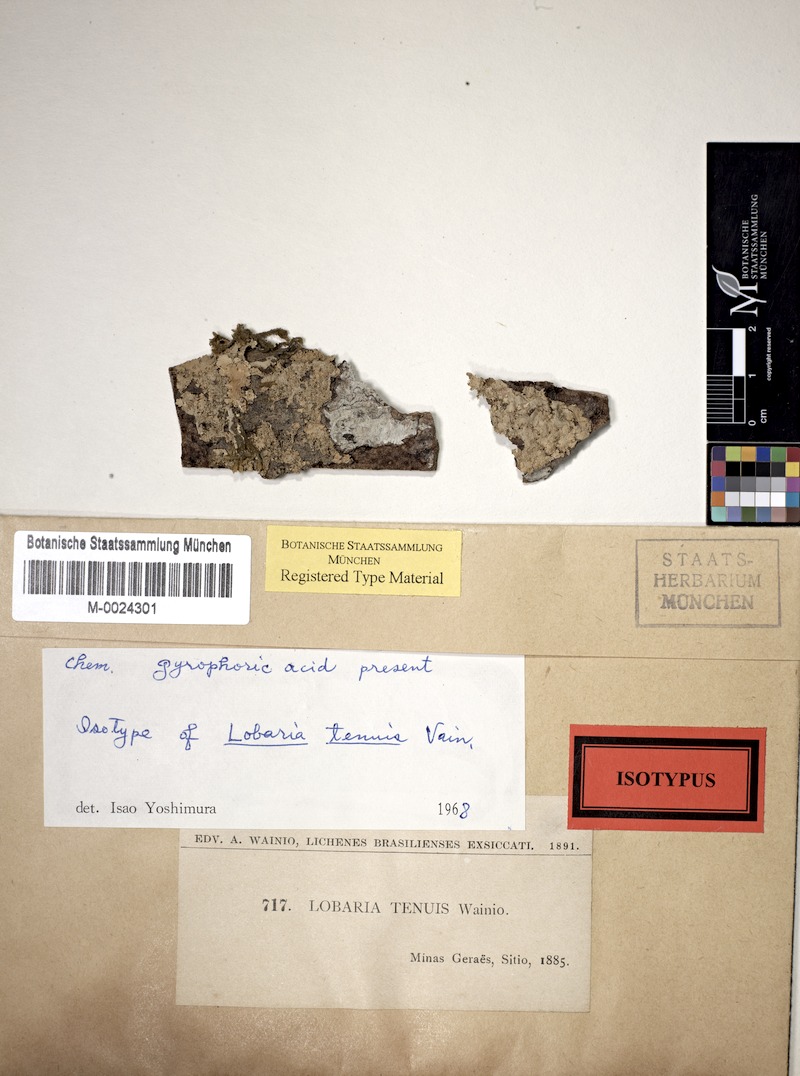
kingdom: Fungi
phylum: Ascomycota
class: Lecanoromycetes
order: Peltigerales
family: Peltigeraceae
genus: Emmanuelia
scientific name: Emmanuelia tenuis
